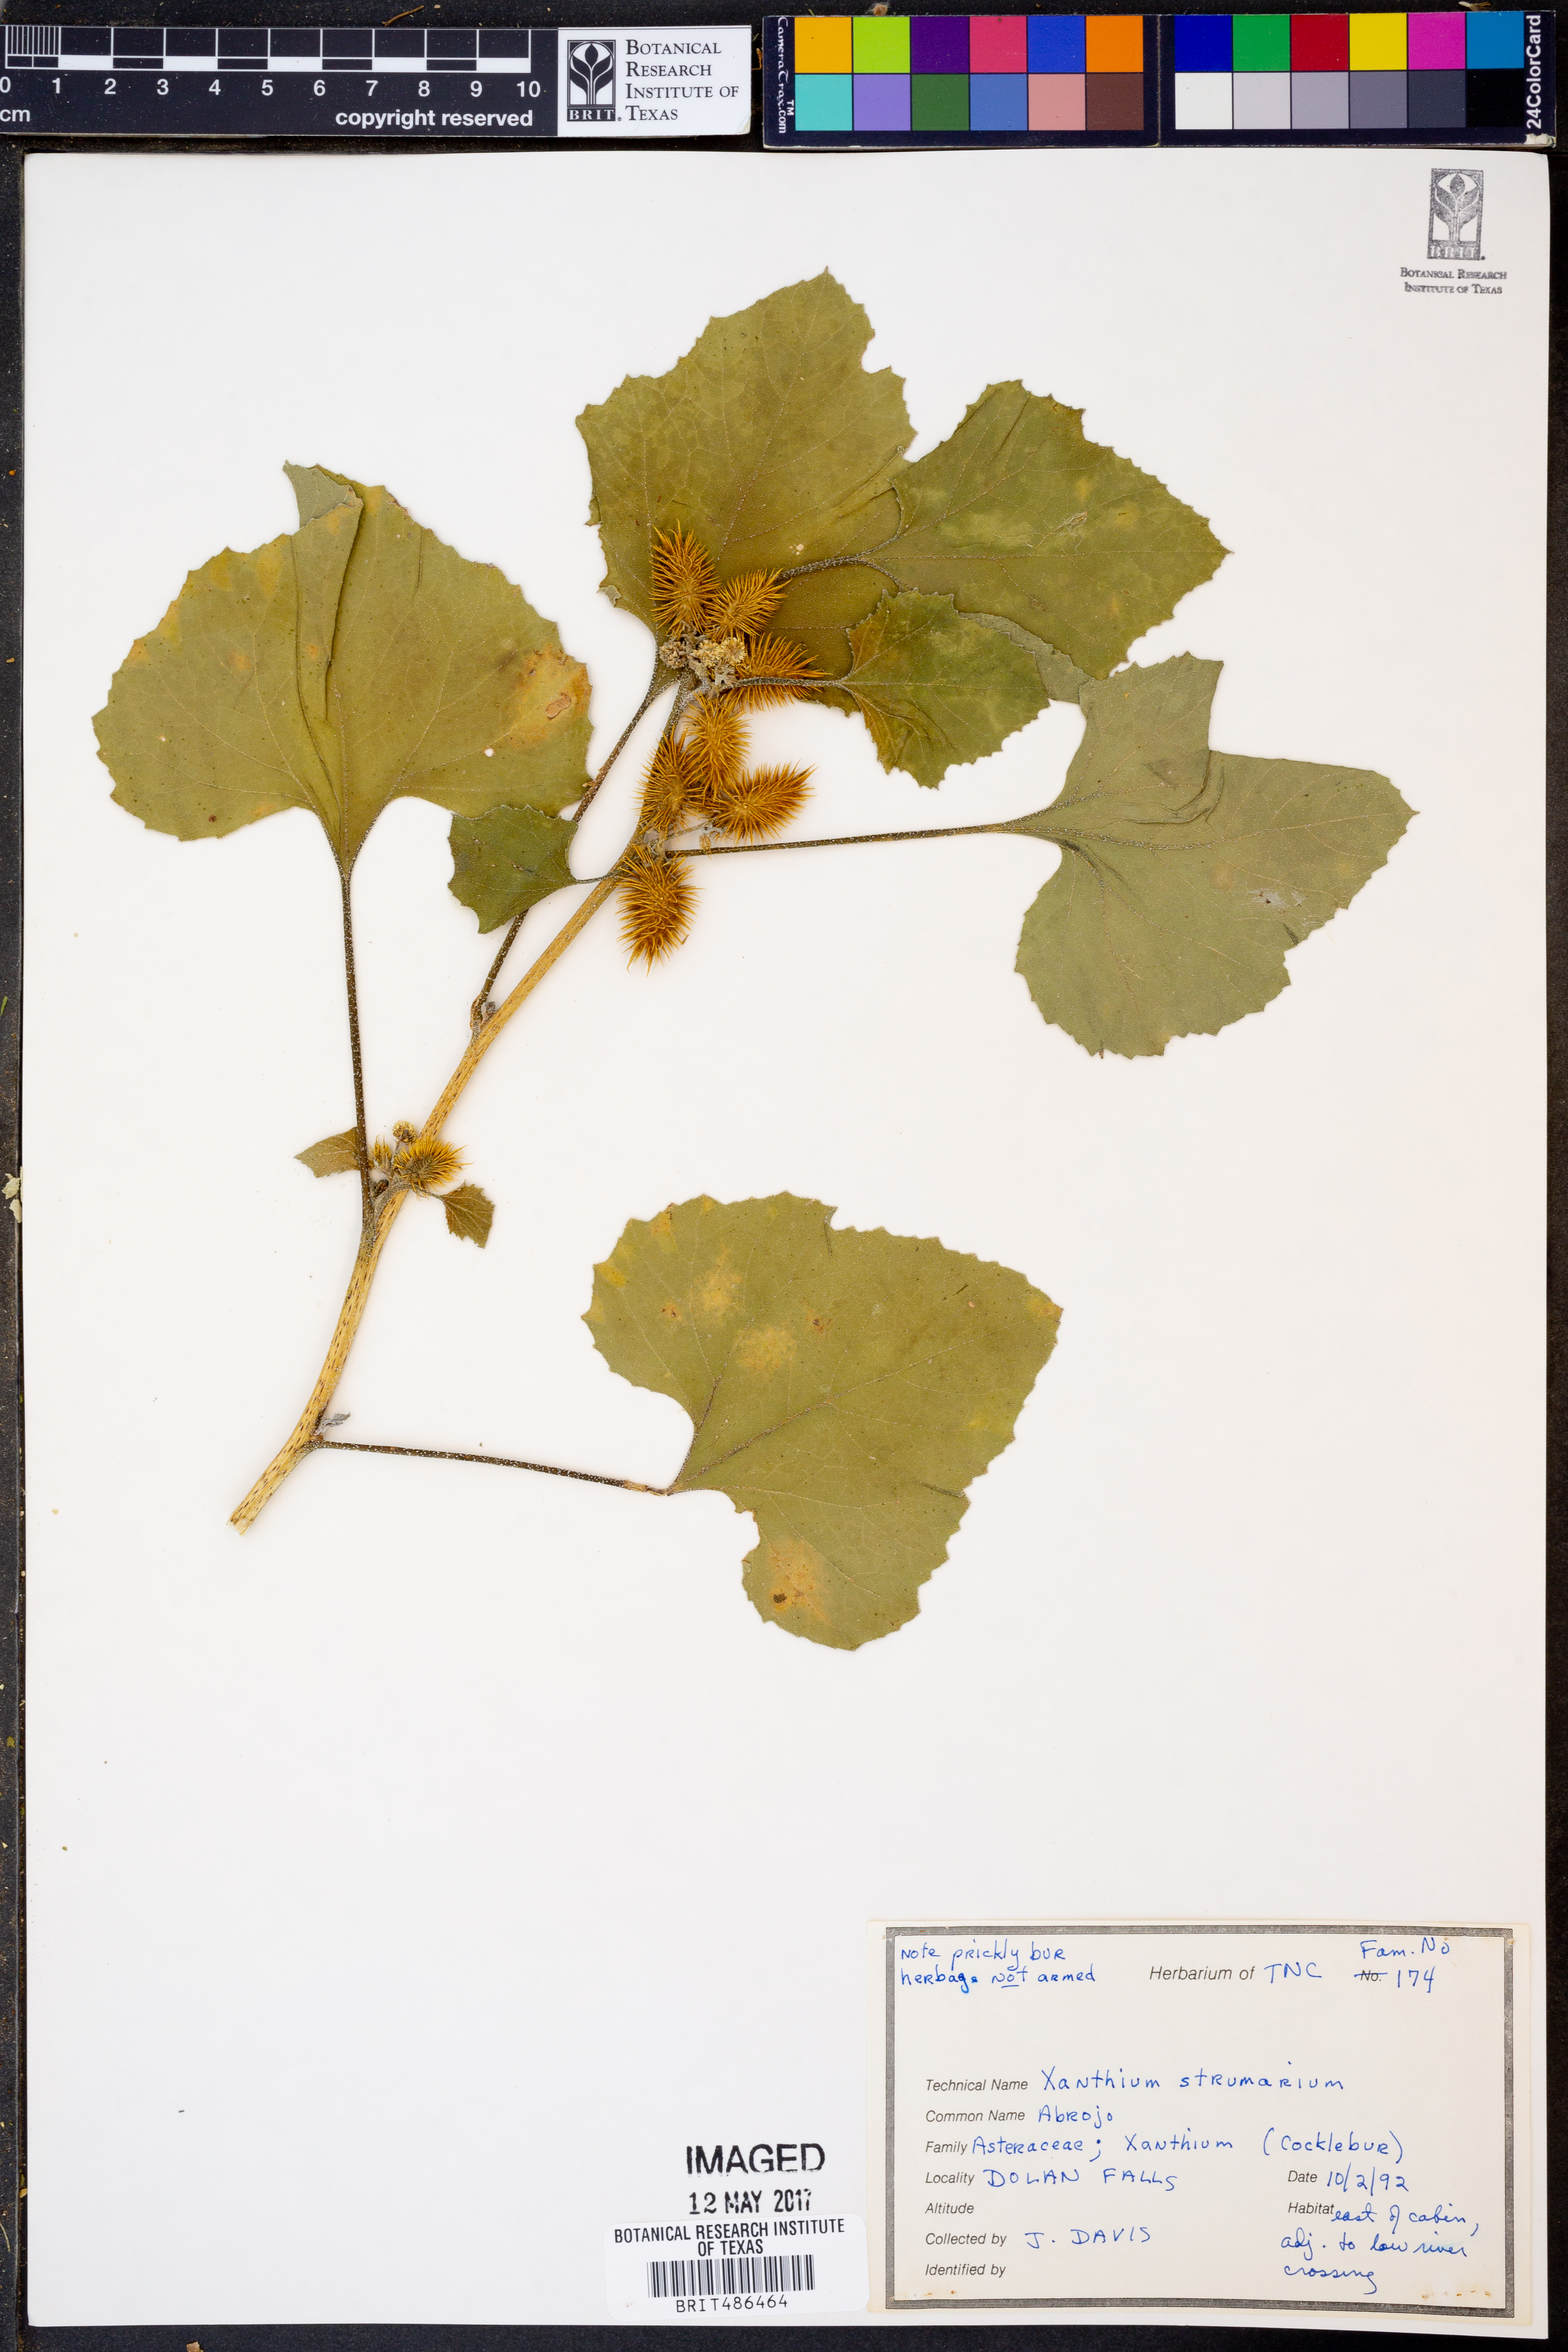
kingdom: Plantae
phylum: Tracheophyta
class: Magnoliopsida
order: Asterales
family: Asteraceae
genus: Xanthium
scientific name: Xanthium strumarium
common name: Rough cocklebur
